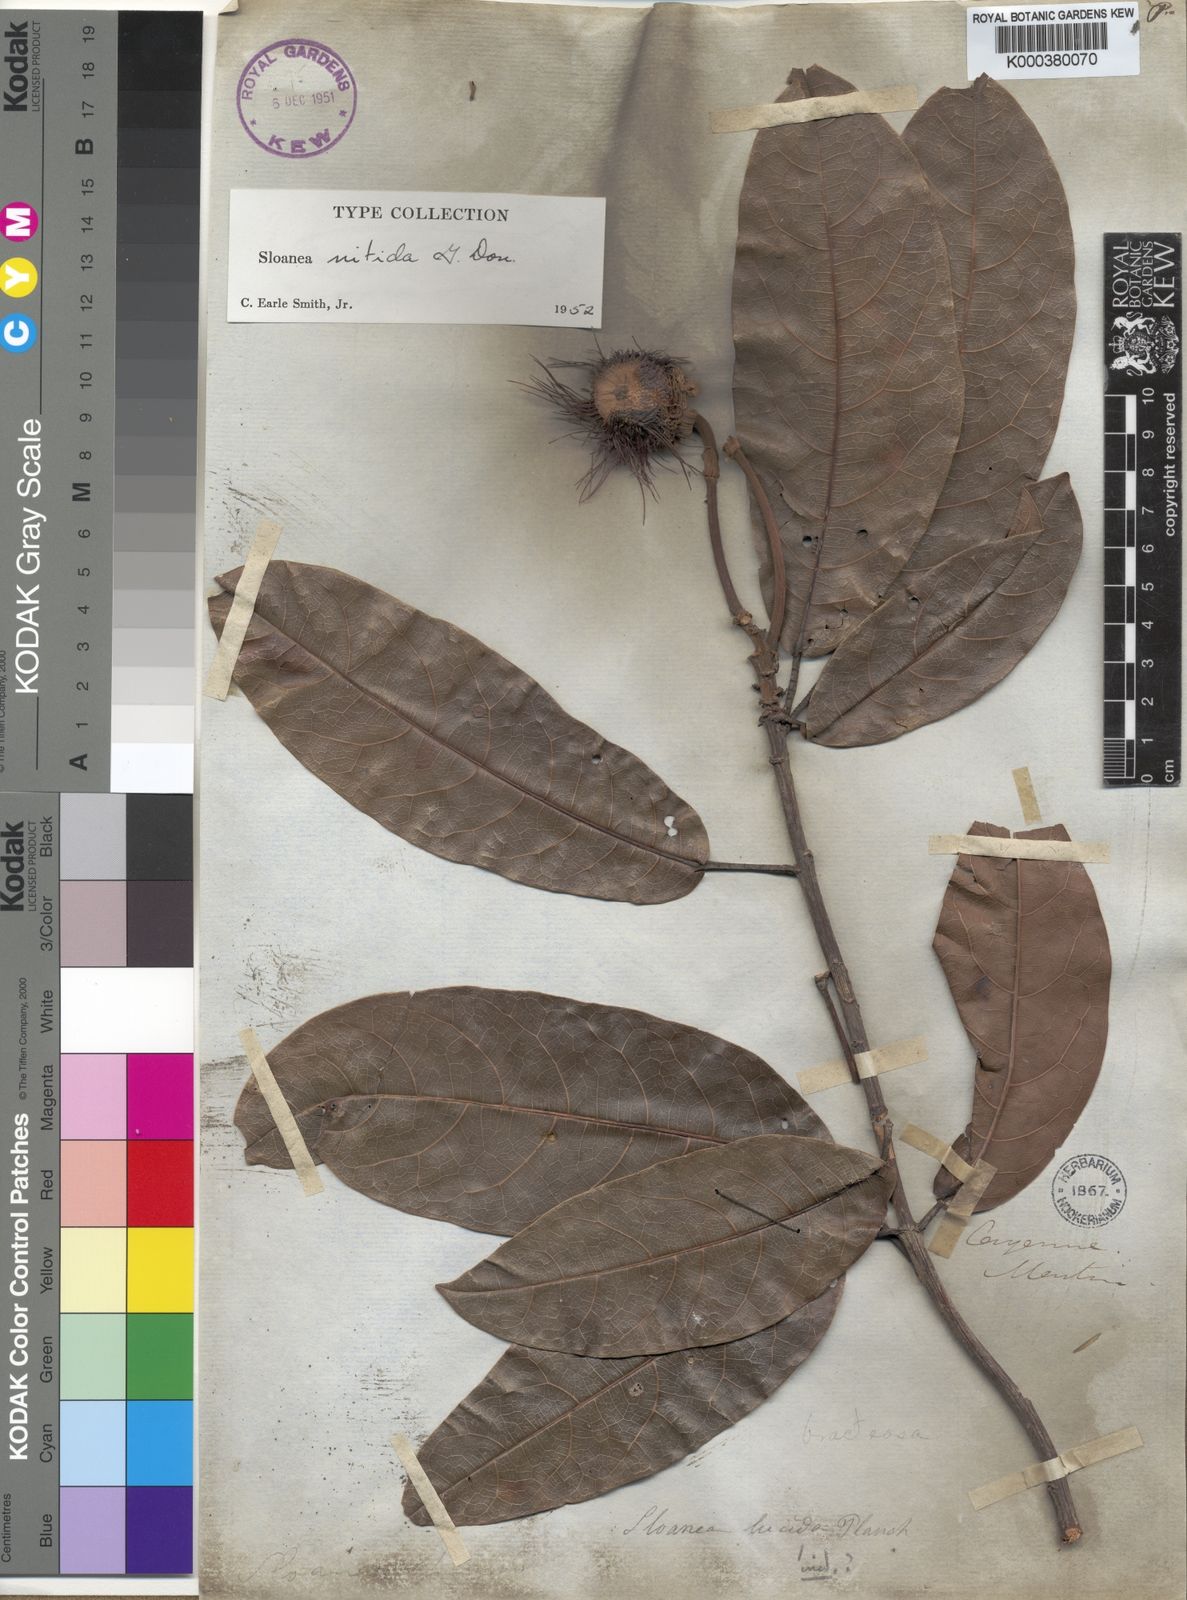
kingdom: Plantae
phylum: Tracheophyta
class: Magnoliopsida
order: Oxalidales
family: Elaeocarpaceae
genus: Sloanea
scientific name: Sloanea nitida
